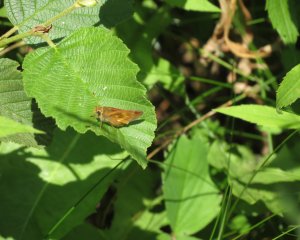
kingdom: Animalia
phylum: Arthropoda
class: Insecta
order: Lepidoptera
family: Hesperiidae
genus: Polites
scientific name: Polites
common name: Long Dash Skipper
